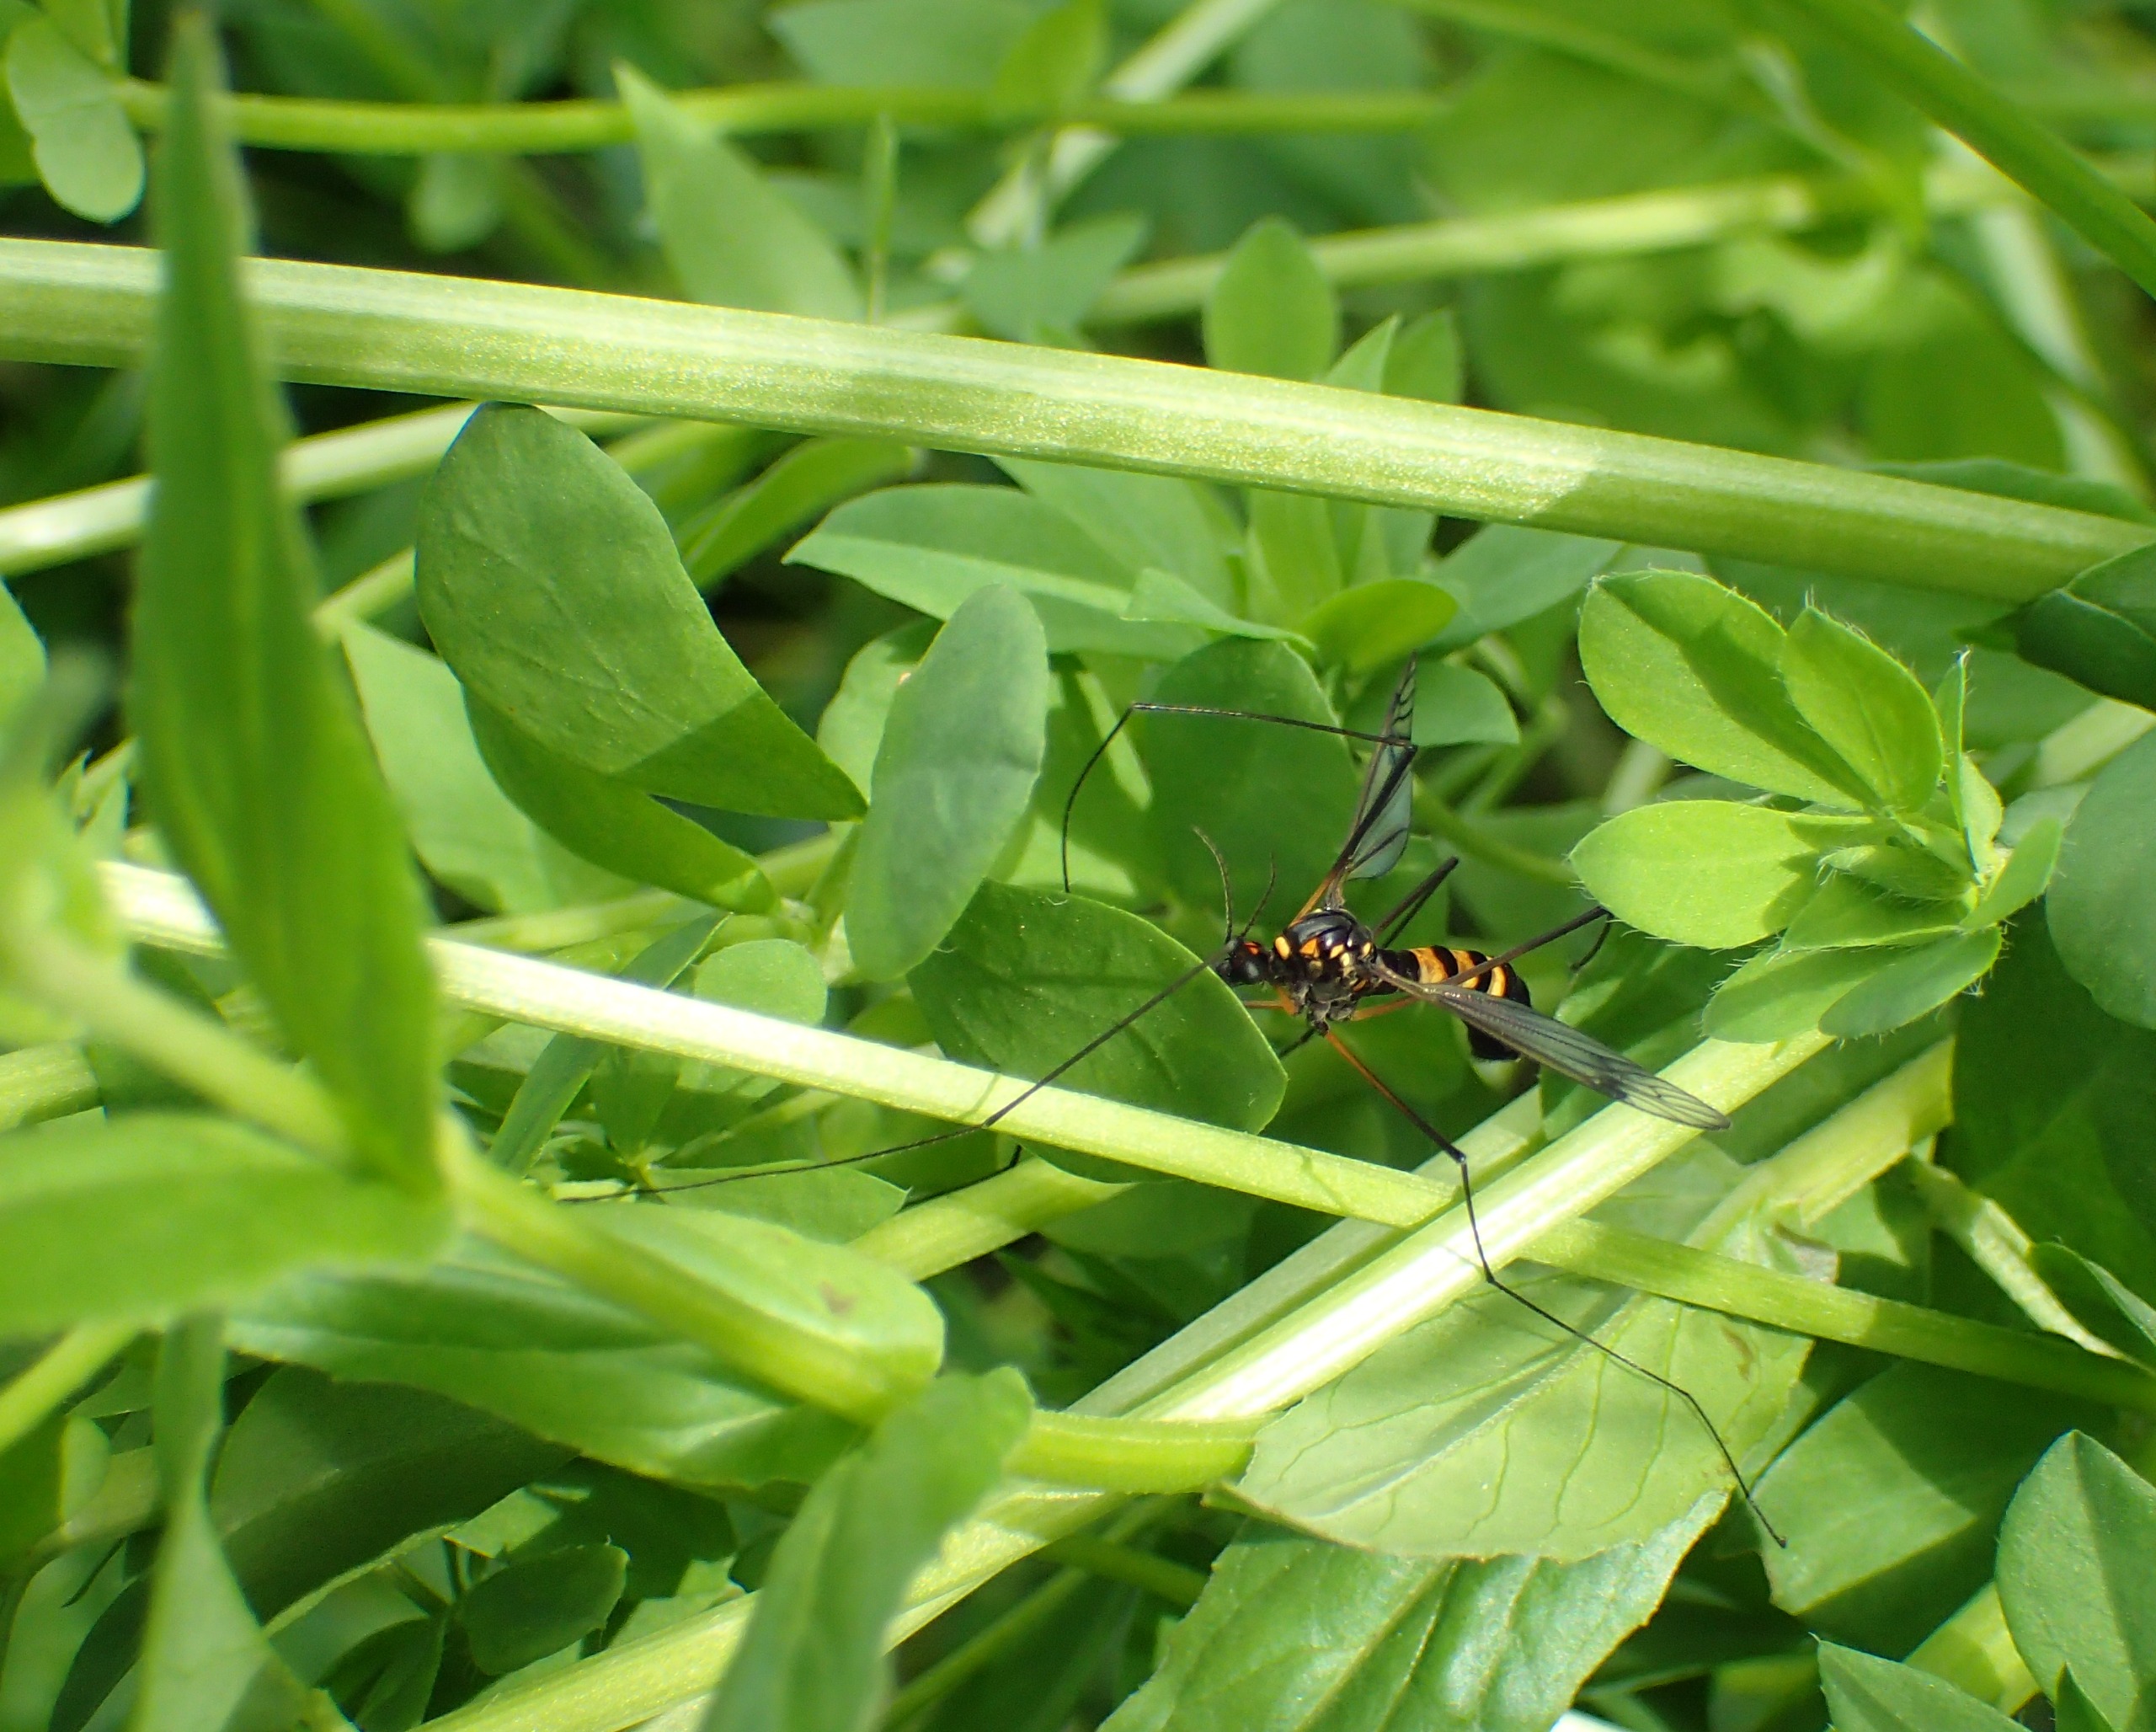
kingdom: Animalia
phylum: Arthropoda
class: Insecta
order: Diptera
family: Tipulidae
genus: Nephrotoma
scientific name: Nephrotoma crocata
